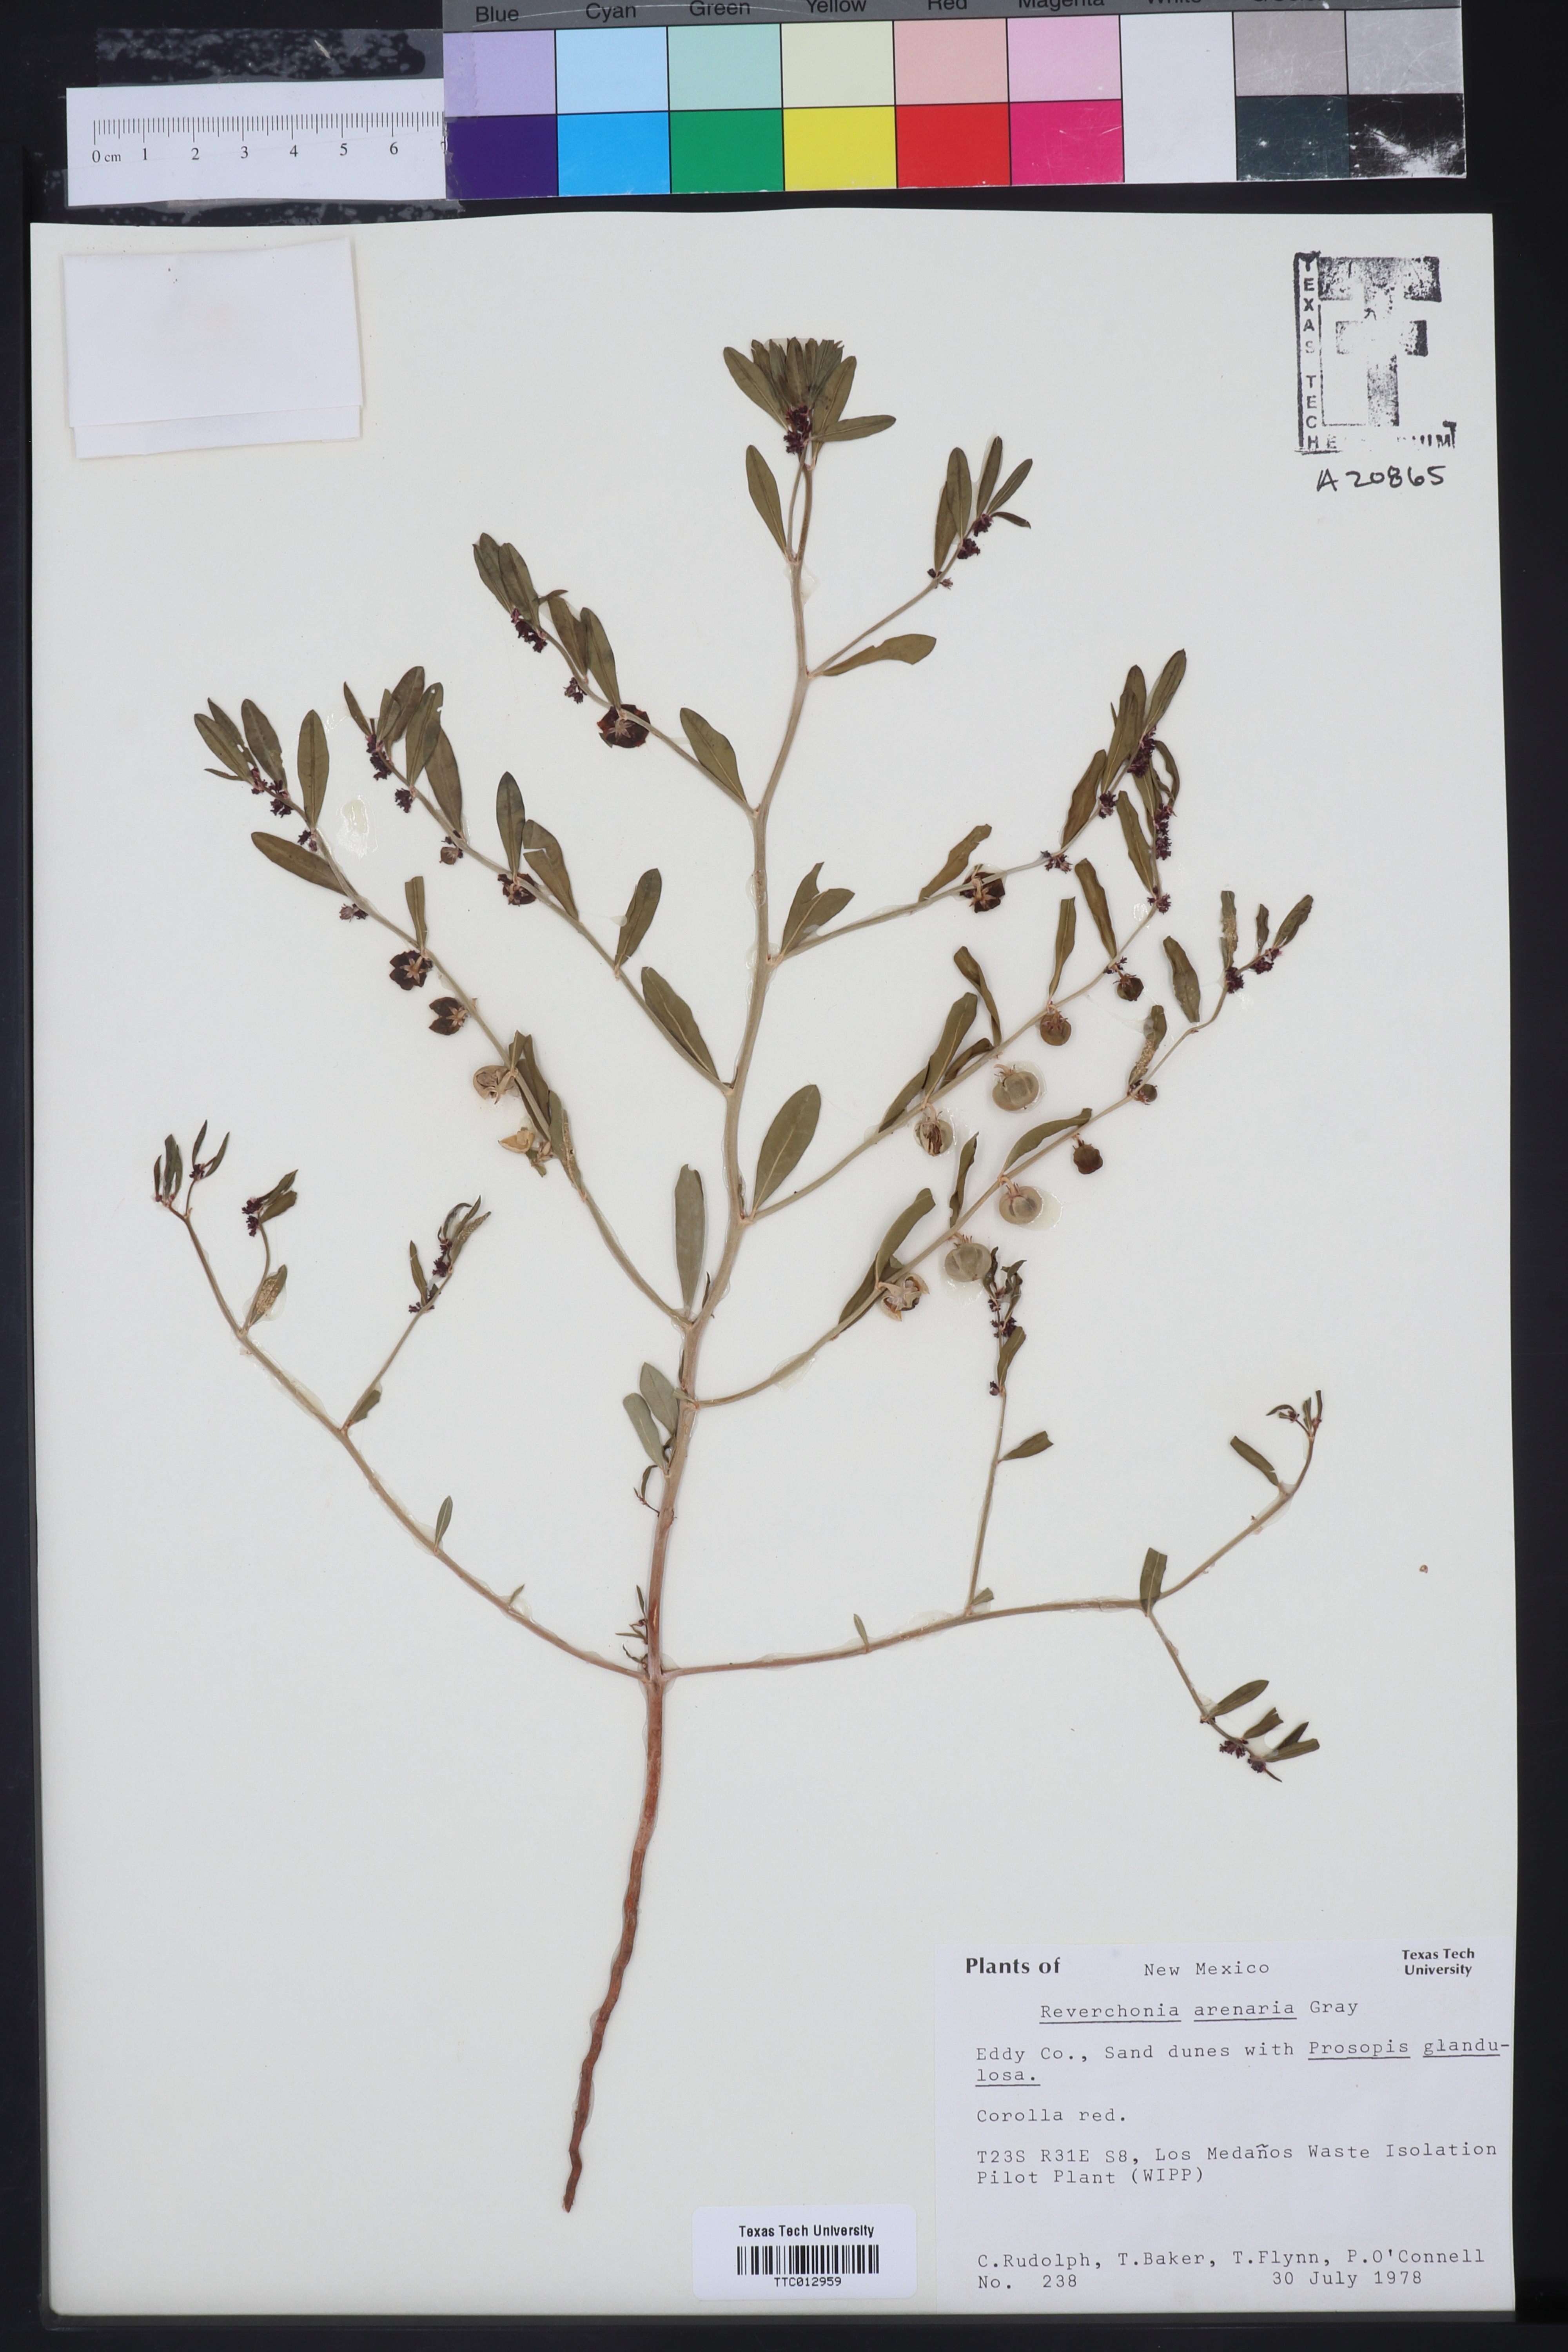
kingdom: Plantae
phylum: Tracheophyta
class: Magnoliopsida
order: Malpighiales
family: Phyllanthaceae
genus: Phyllanthus
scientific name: Phyllanthus warnockii
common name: Sand reverchonia
